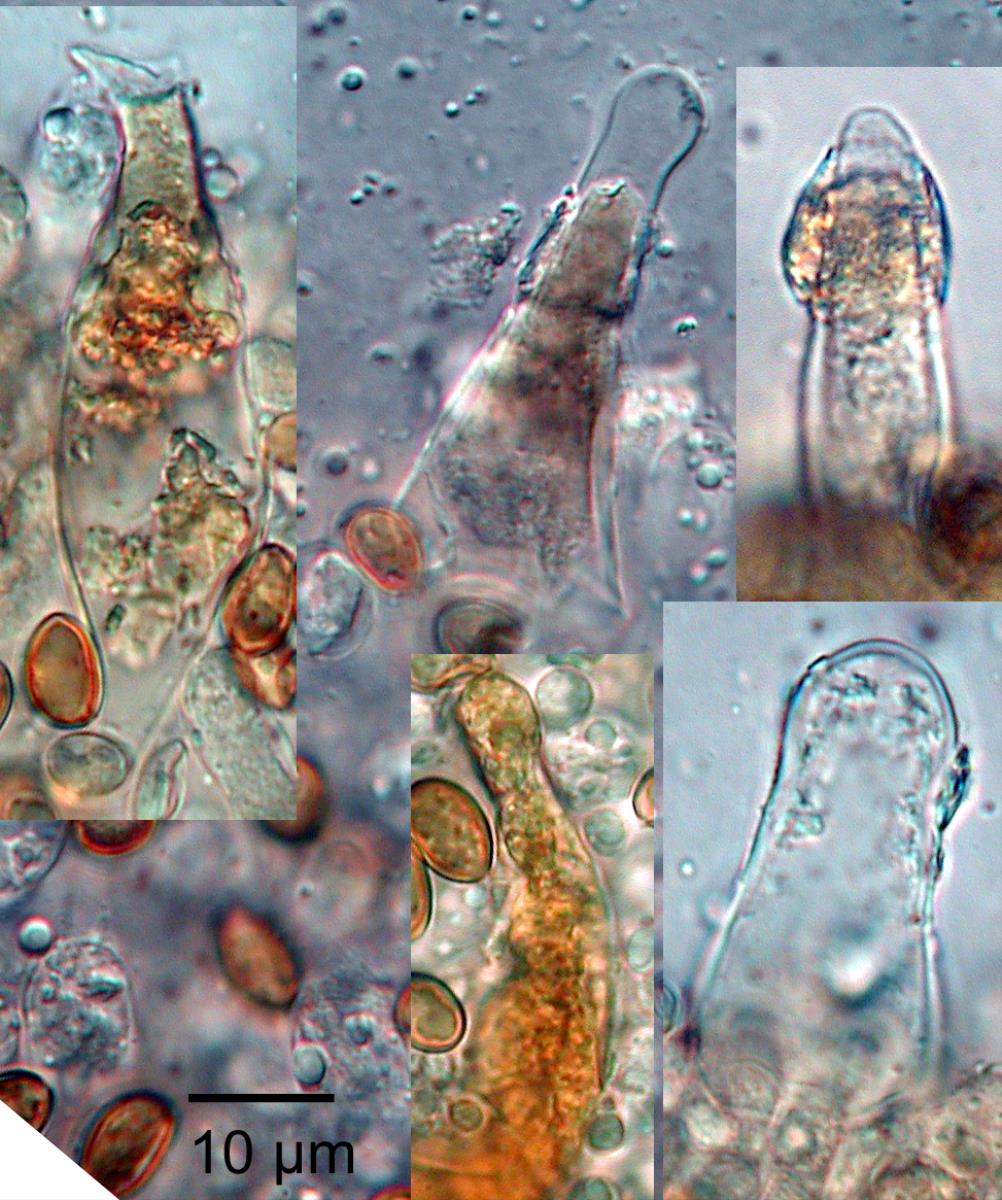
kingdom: Fungi
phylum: Basidiomycota
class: Agaricomycetes
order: Agaricales
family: Strophariaceae
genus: Pholiota
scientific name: Pholiota multicingulata
